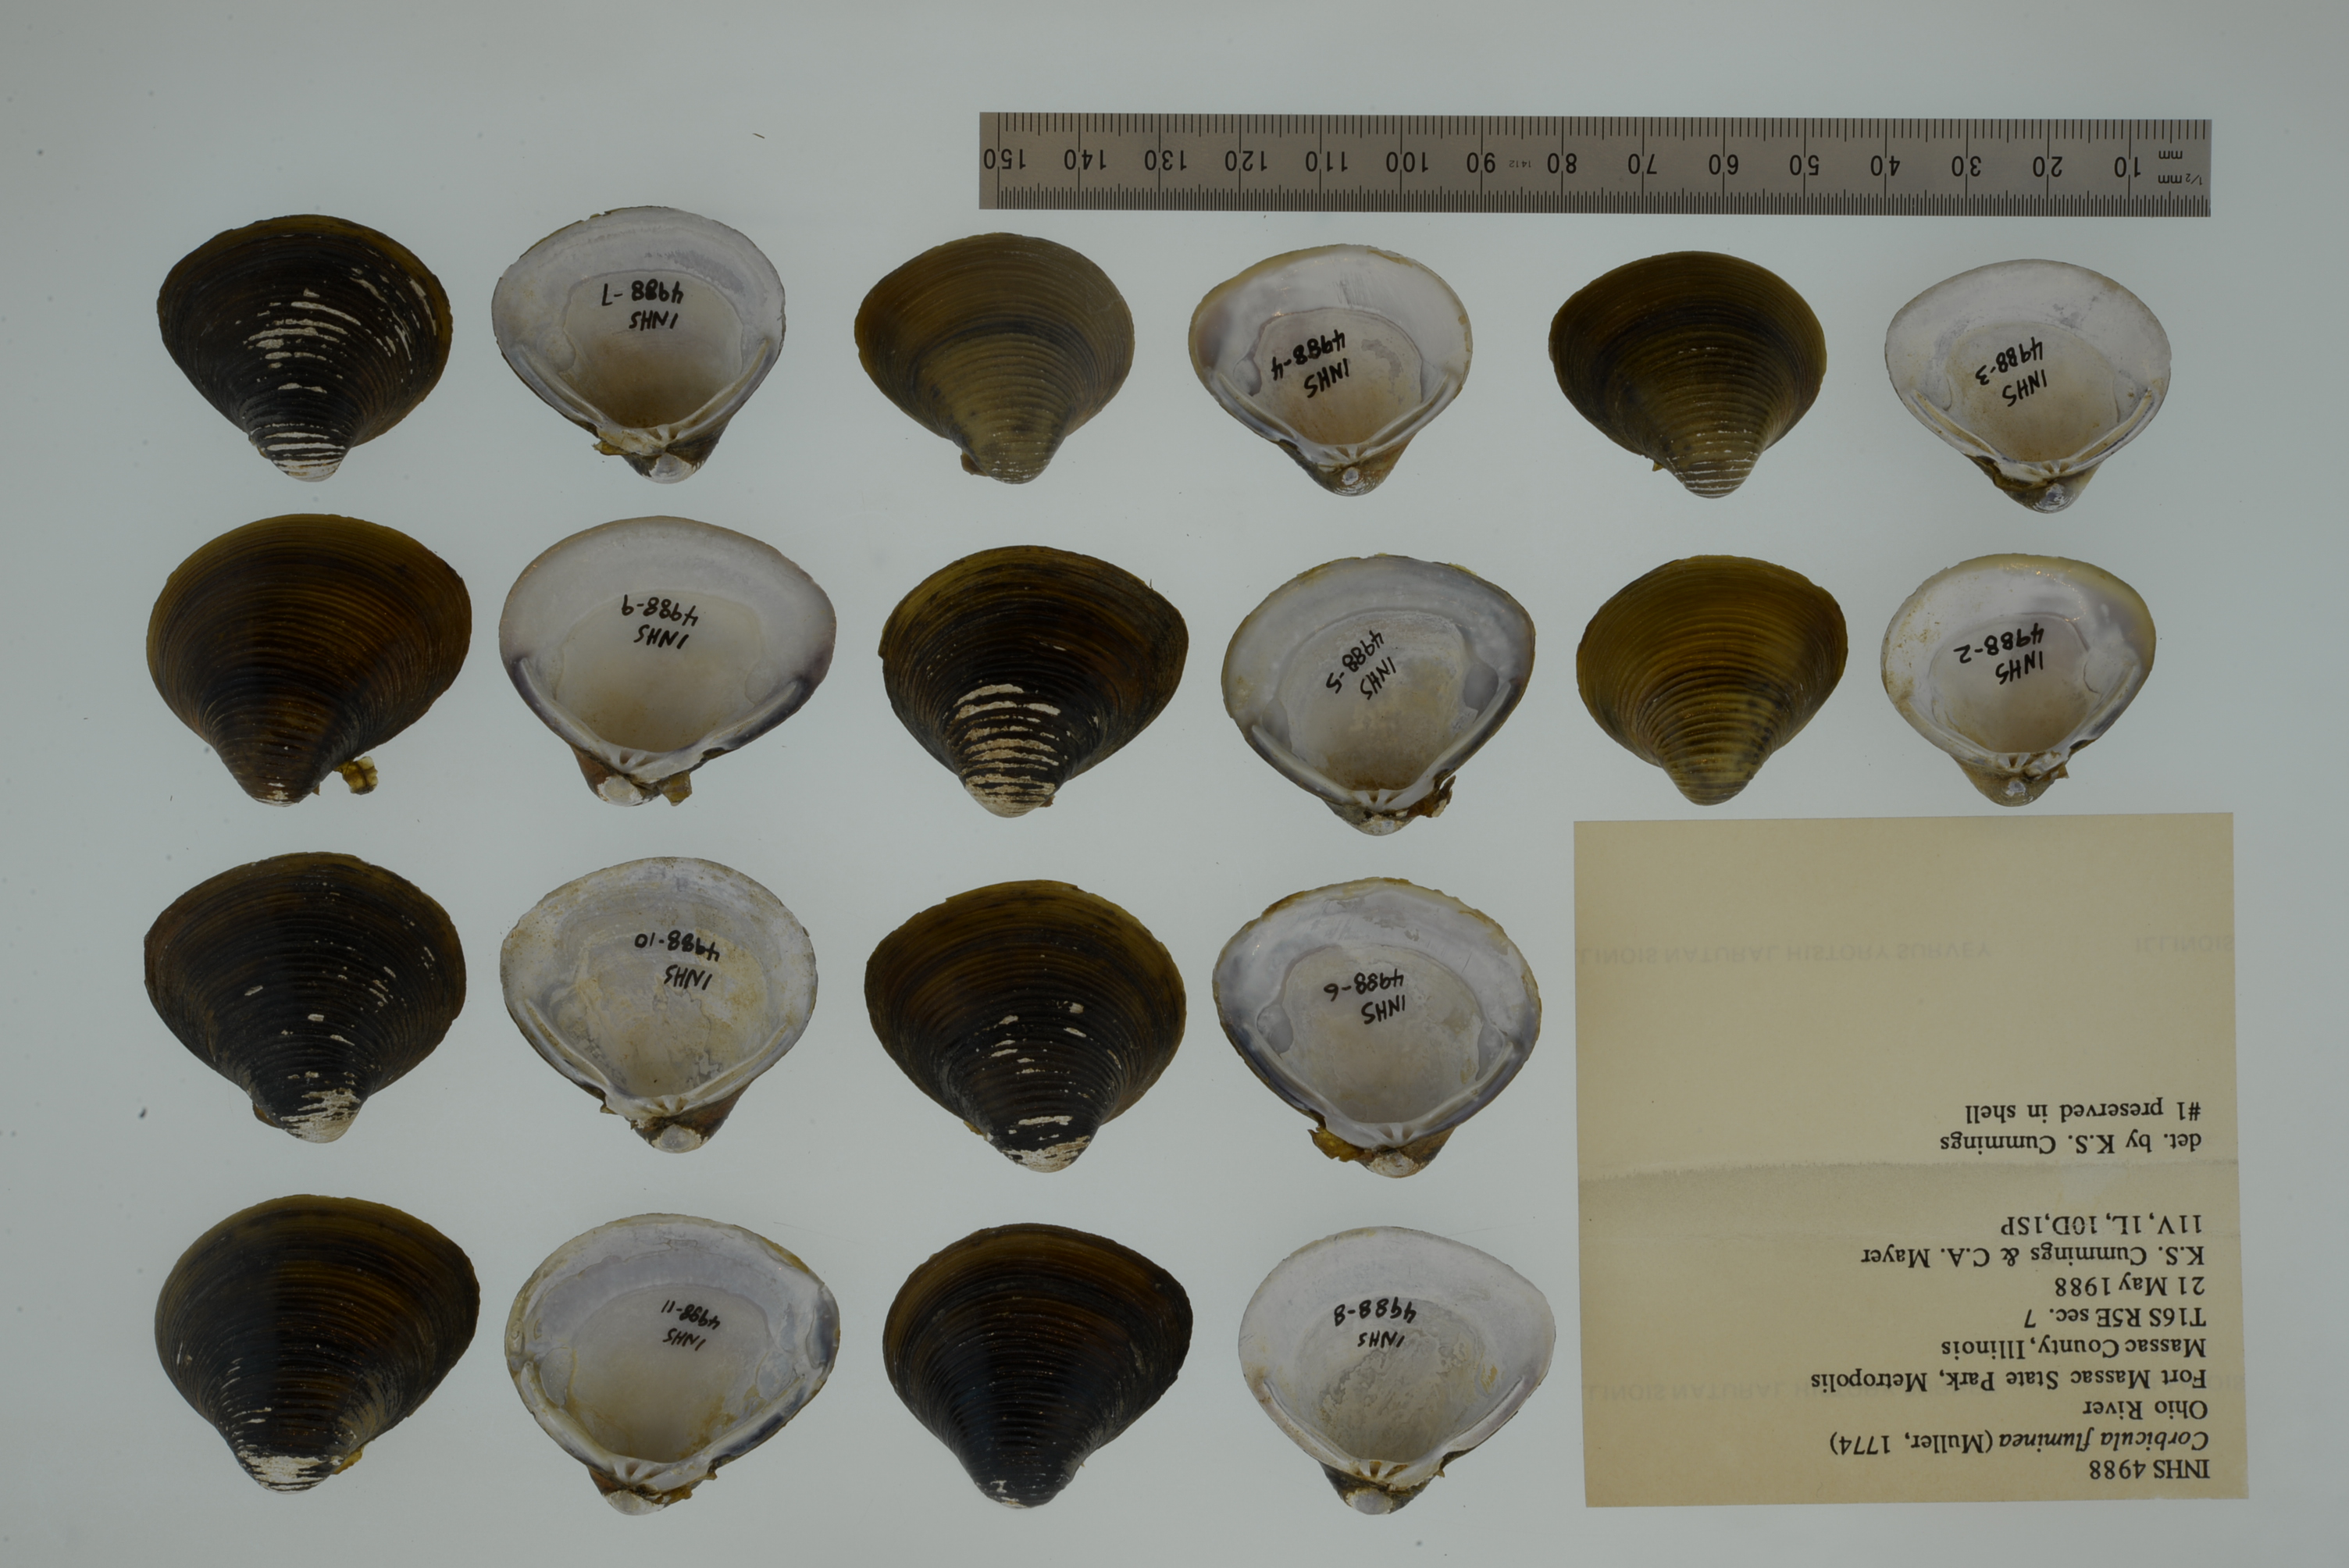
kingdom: Animalia
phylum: Mollusca
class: Bivalvia
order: Venerida
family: Cyrenidae
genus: Corbicula
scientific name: Corbicula fluminea
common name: Asian clam
